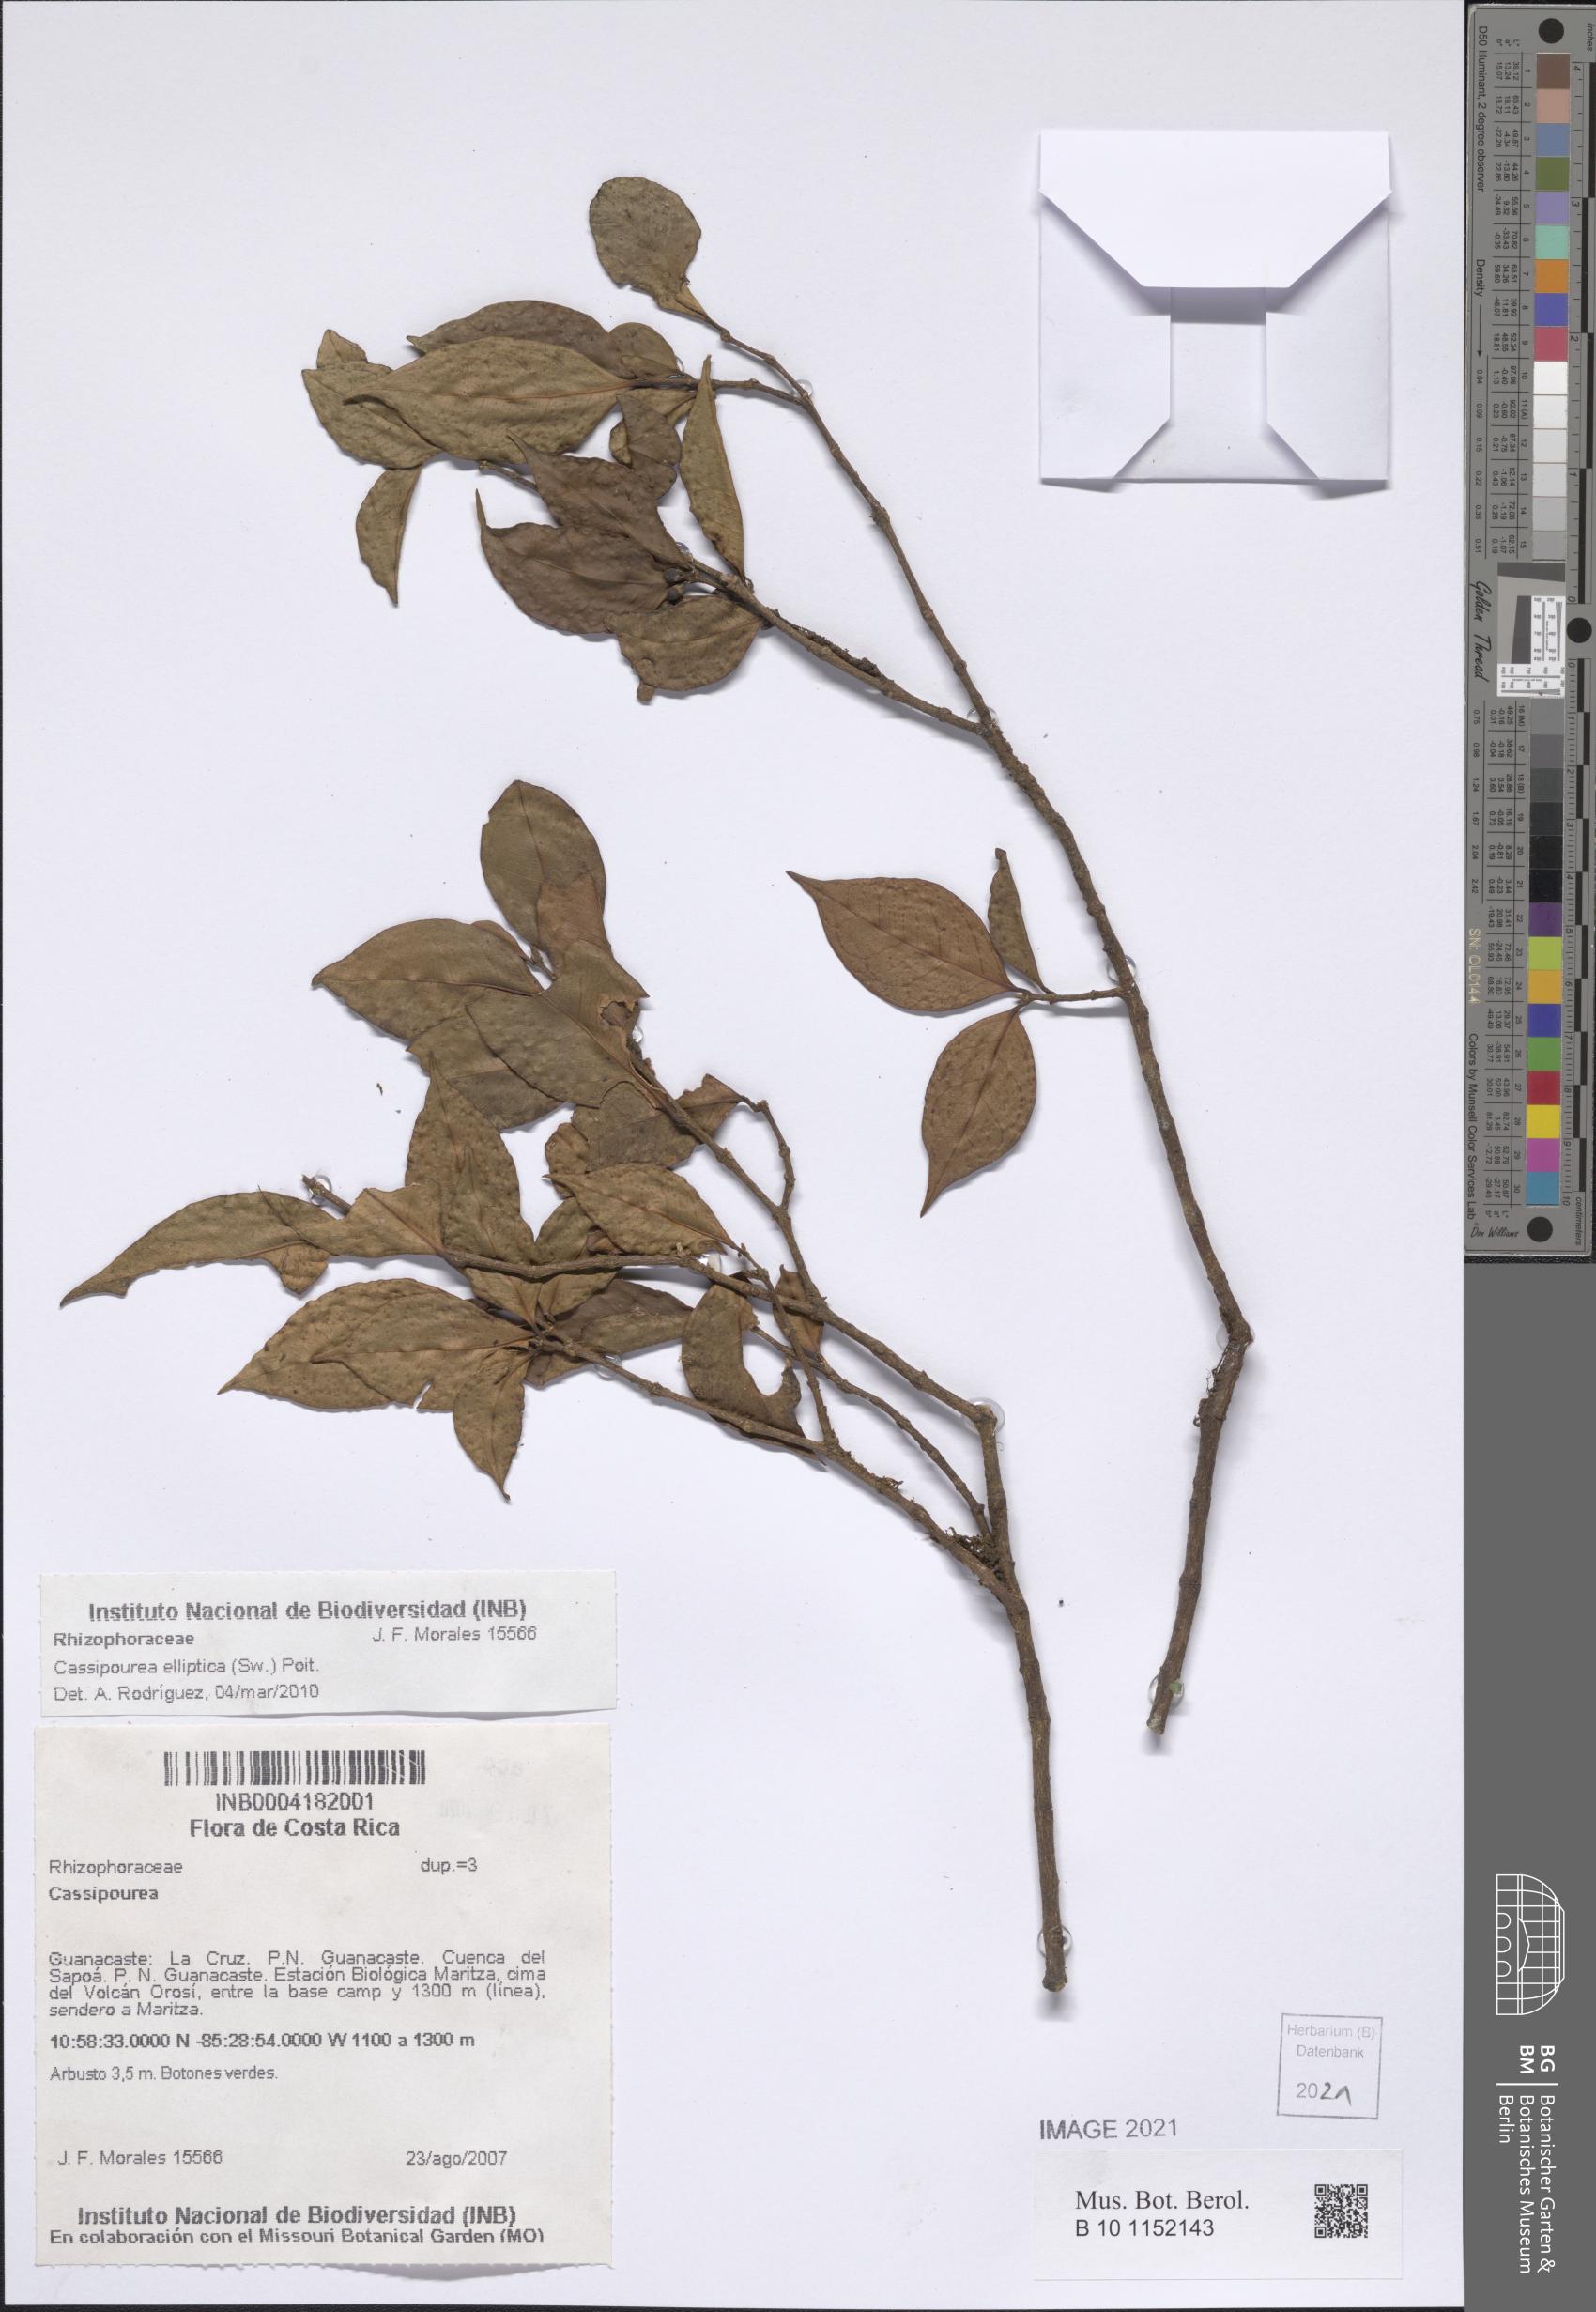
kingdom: Plantae
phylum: Tracheophyta
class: Magnoliopsida
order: Malpighiales
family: Rhizophoraceae
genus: Cassipourea
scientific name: Cassipourea elliptica
